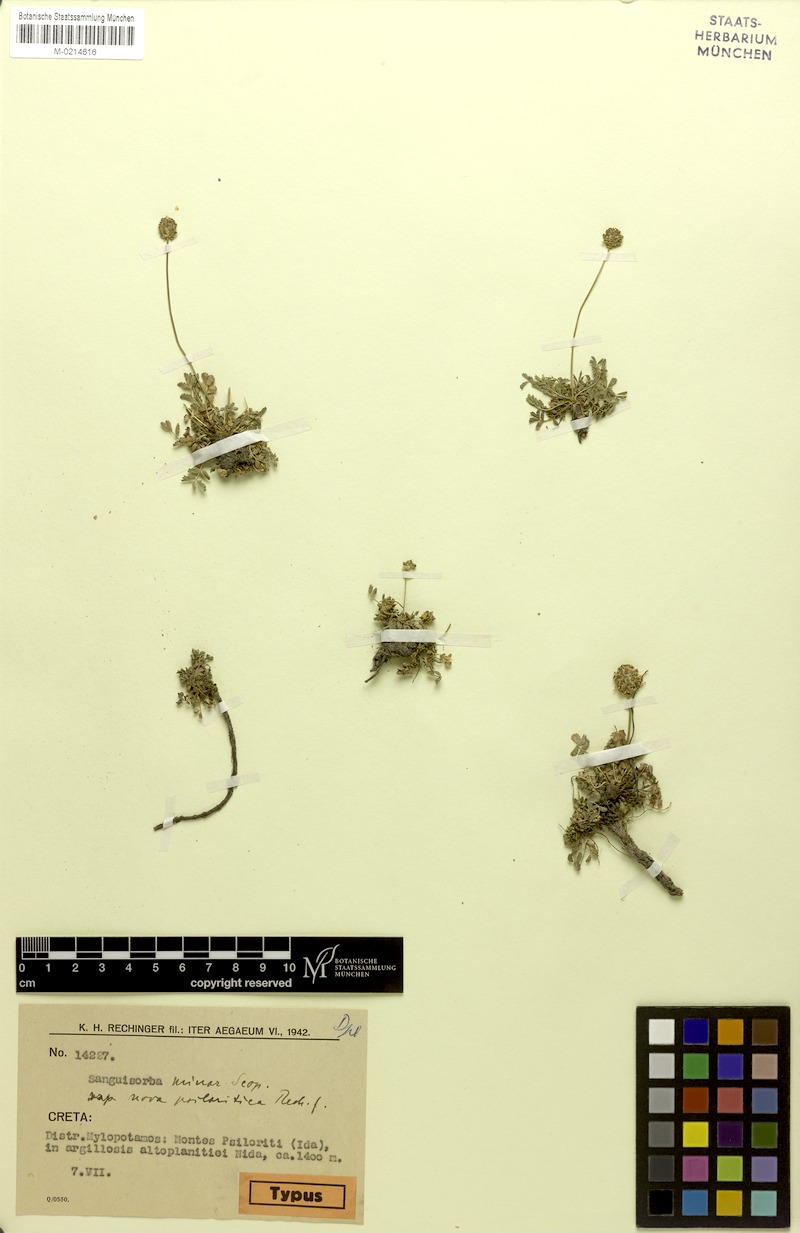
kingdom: Plantae
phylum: Tracheophyta
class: Magnoliopsida
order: Rosales
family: Rosaceae
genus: Poterium
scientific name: Poterium sanguisorba
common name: Salad burnet
